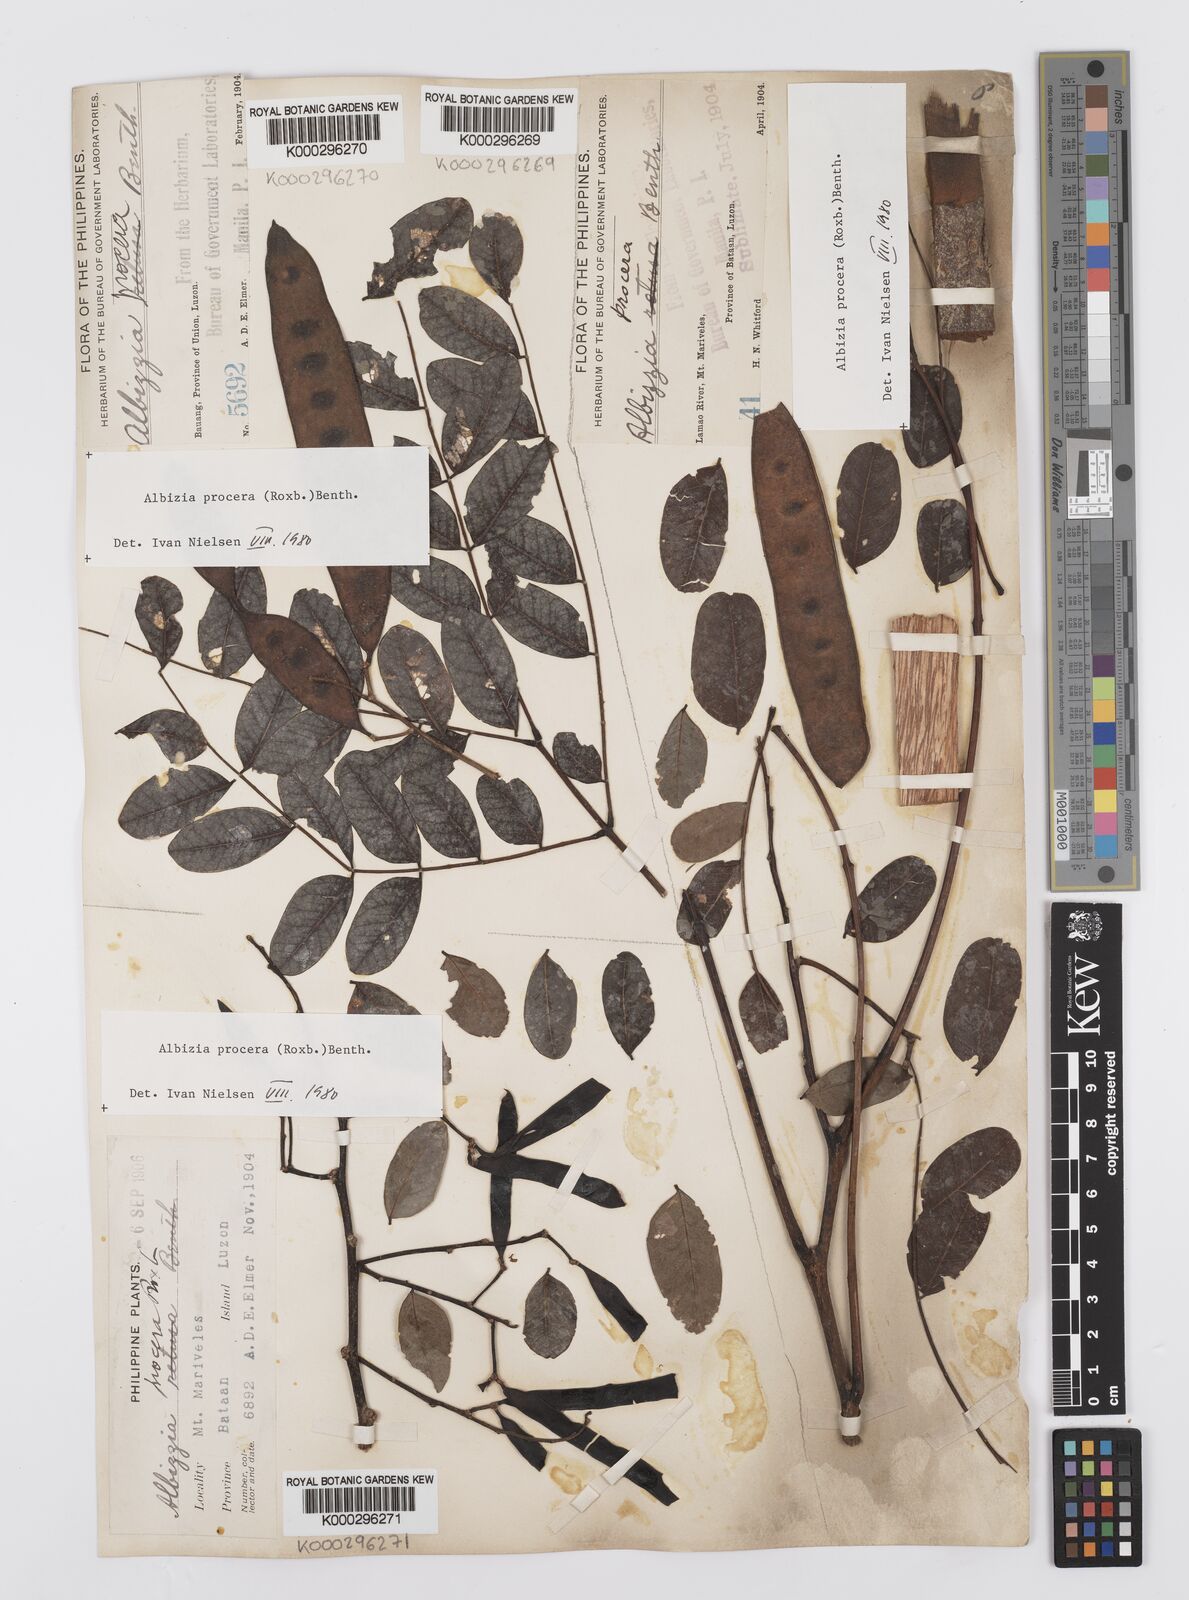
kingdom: Plantae
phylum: Tracheophyta
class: Magnoliopsida
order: Fabales
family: Fabaceae
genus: Albizia
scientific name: Albizia procera
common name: Tall albizia
